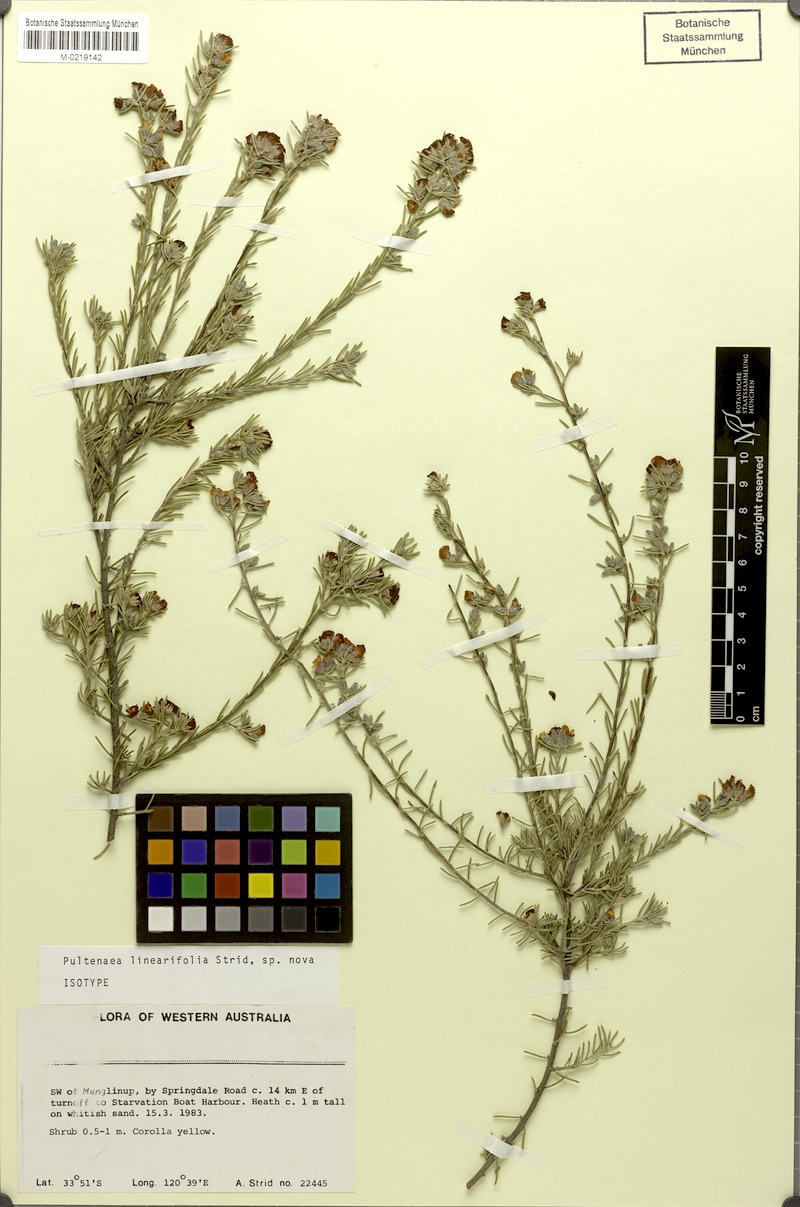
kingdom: Plantae
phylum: Tracheophyta
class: Magnoliopsida
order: Fabales
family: Fabaceae
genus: Pultenaea
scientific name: Pultenaea adunca
